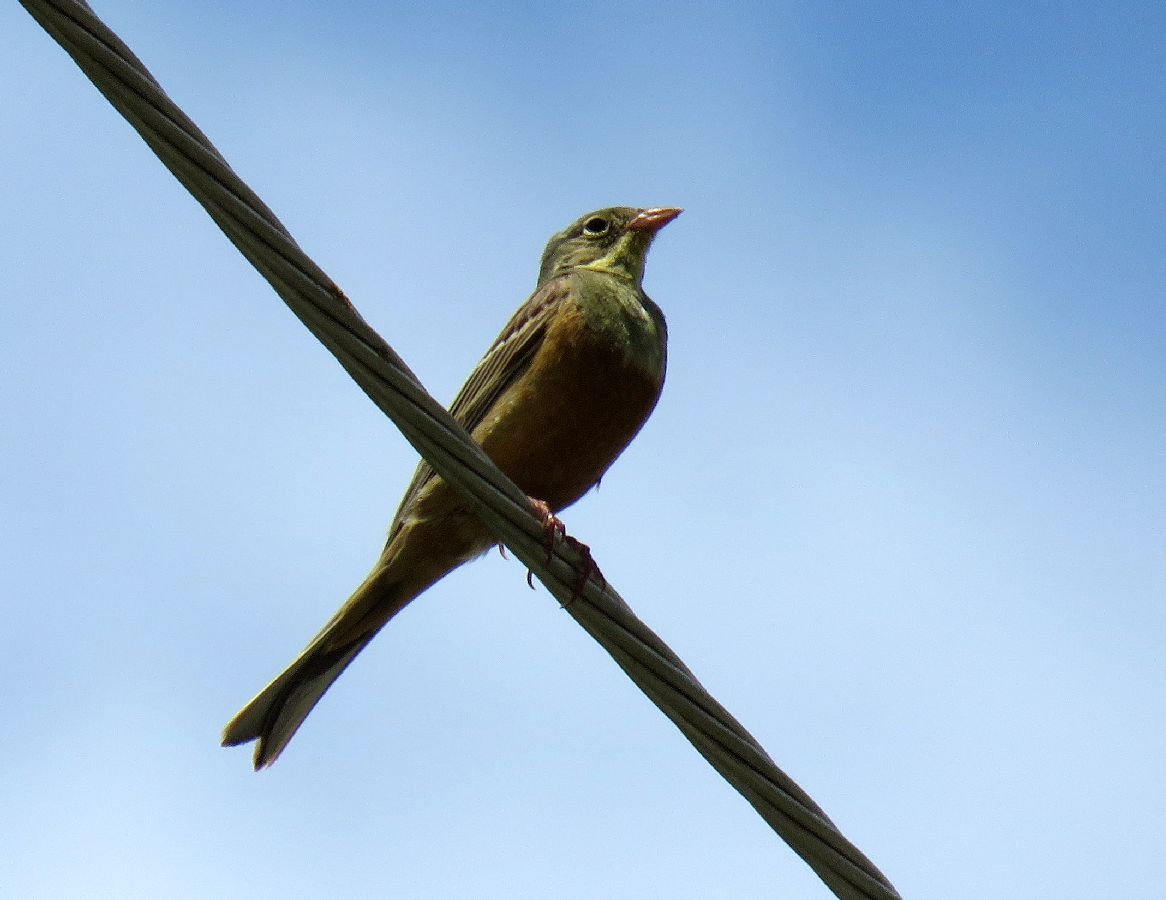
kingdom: Animalia
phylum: Chordata
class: Aves
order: Passeriformes
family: Emberizidae
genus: Emberiza
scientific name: Emberiza hortulana
